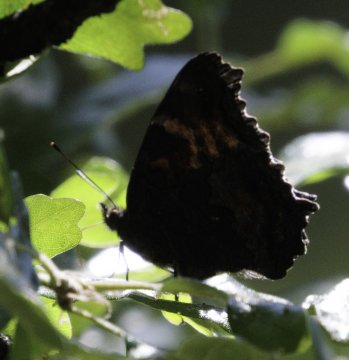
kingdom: Animalia
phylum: Arthropoda
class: Insecta
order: Lepidoptera
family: Nymphalidae
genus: Nymphalis
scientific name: Nymphalis californica
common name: California Tortoiseshell
